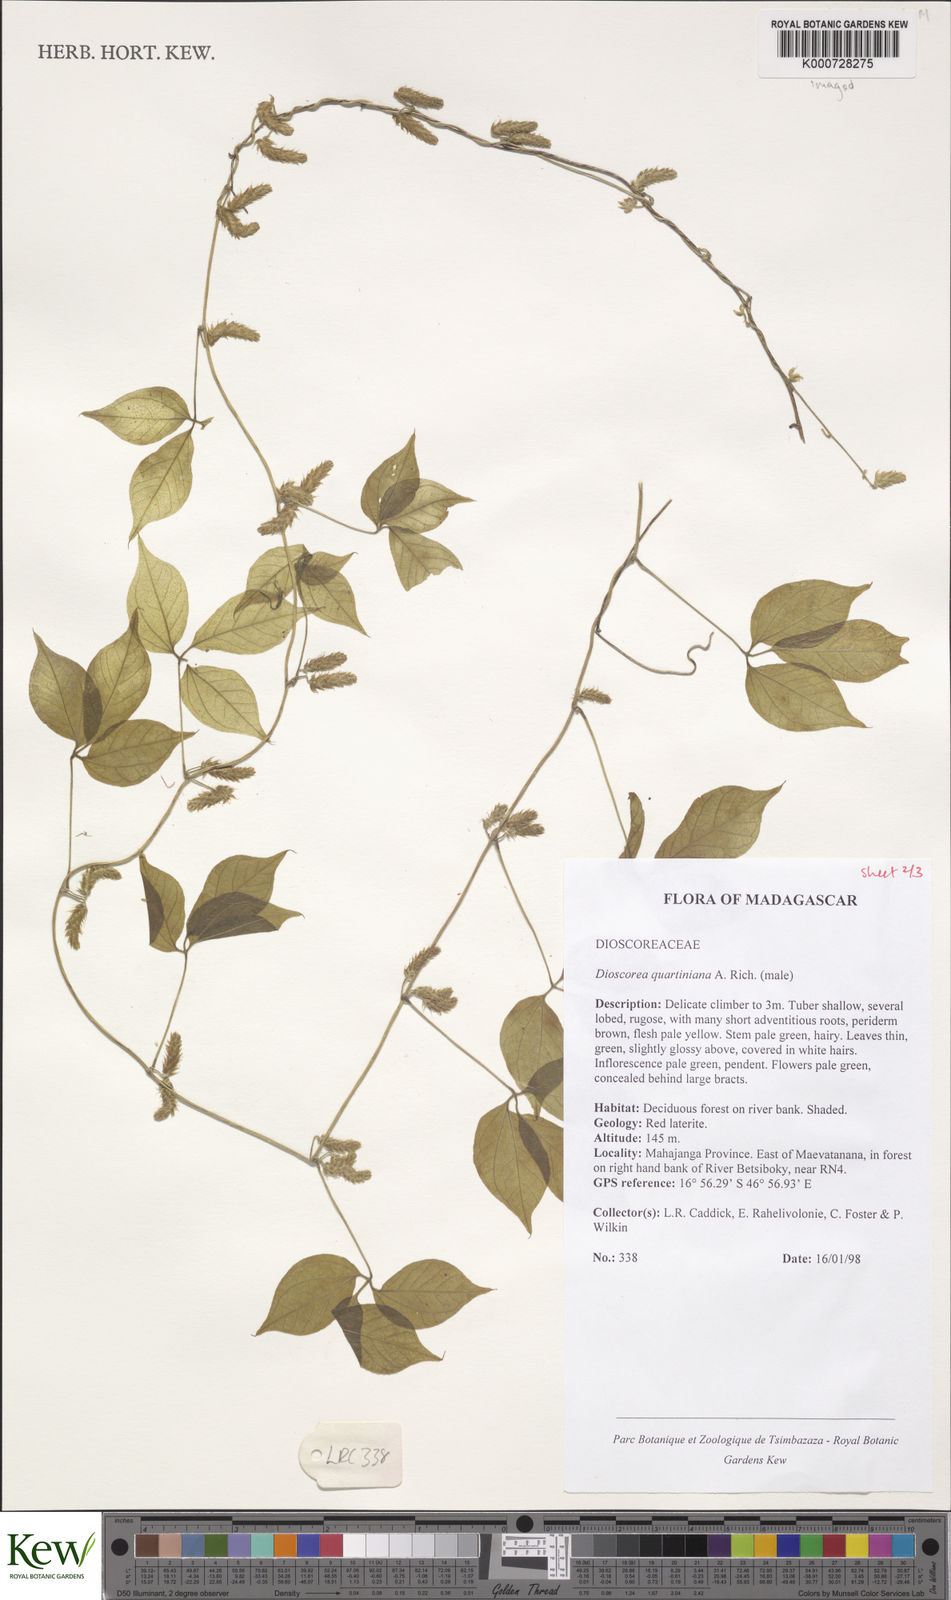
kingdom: Plantae
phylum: Tracheophyta
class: Liliopsida
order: Dioscoreales
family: Dioscoreaceae
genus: Dioscorea
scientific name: Dioscorea quartiniana
